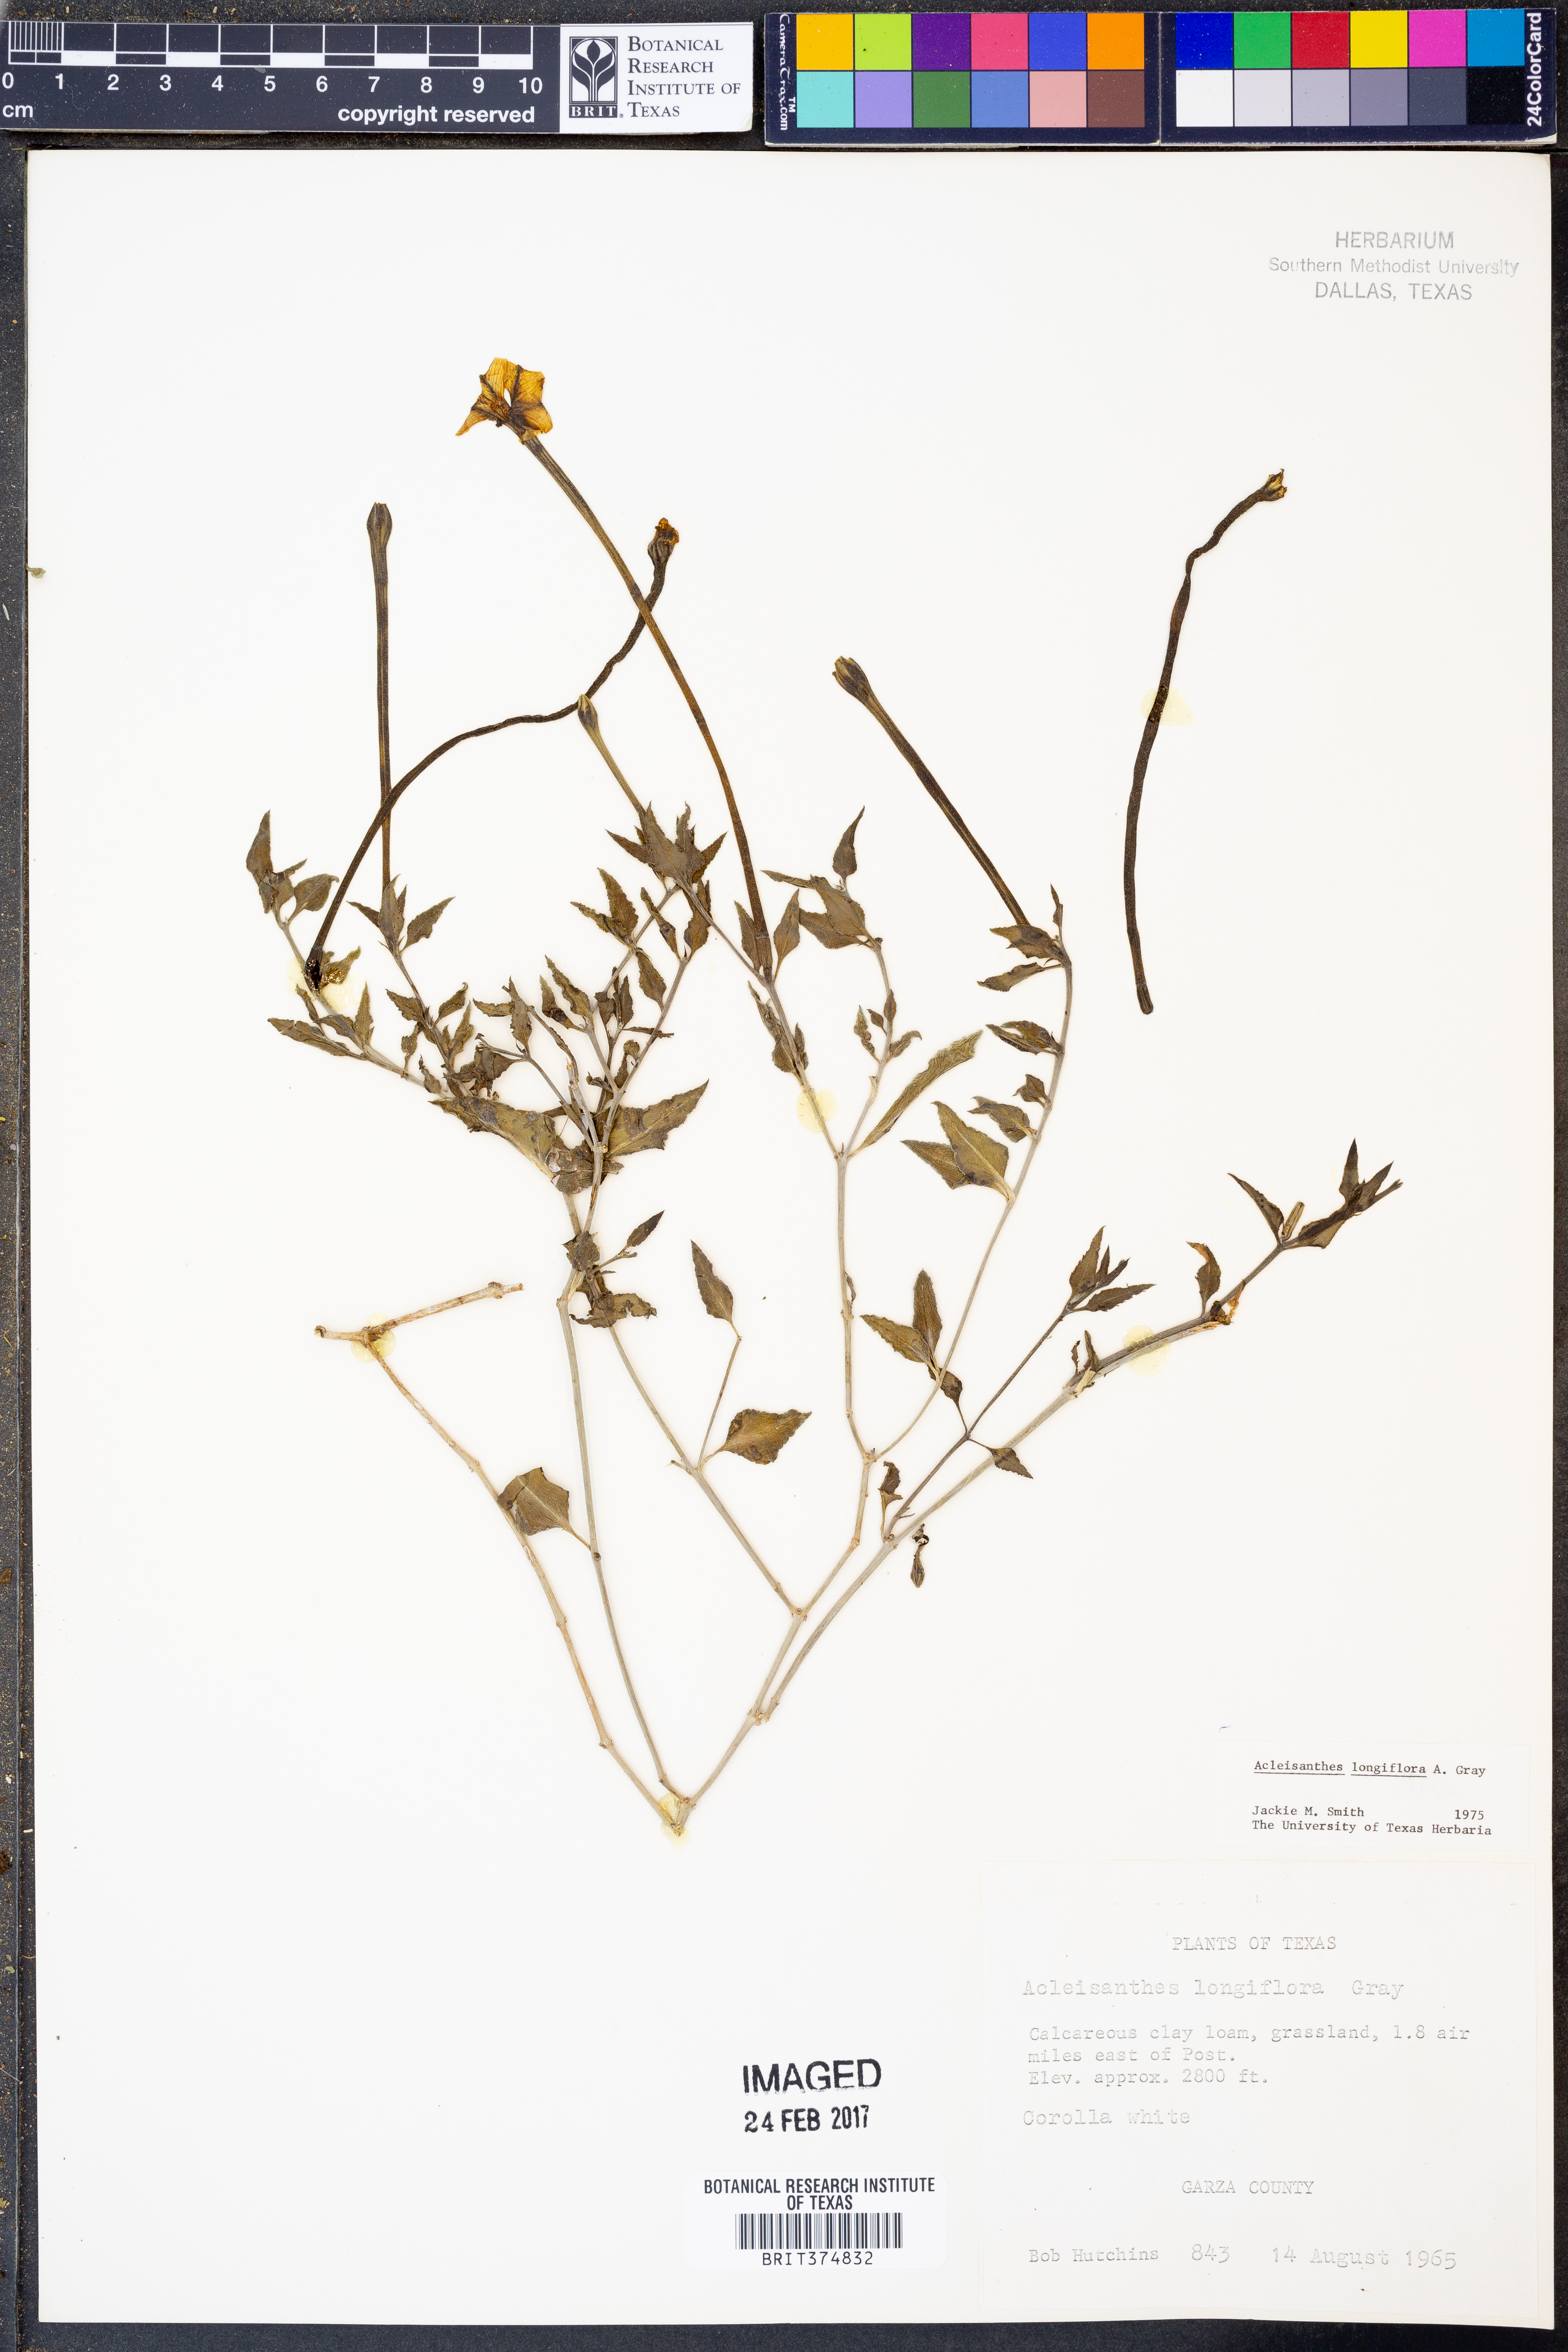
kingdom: Plantae
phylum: Tracheophyta
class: Magnoliopsida
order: Caryophyllales
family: Nyctaginaceae
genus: Acleisanthes
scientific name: Acleisanthes longiflora
